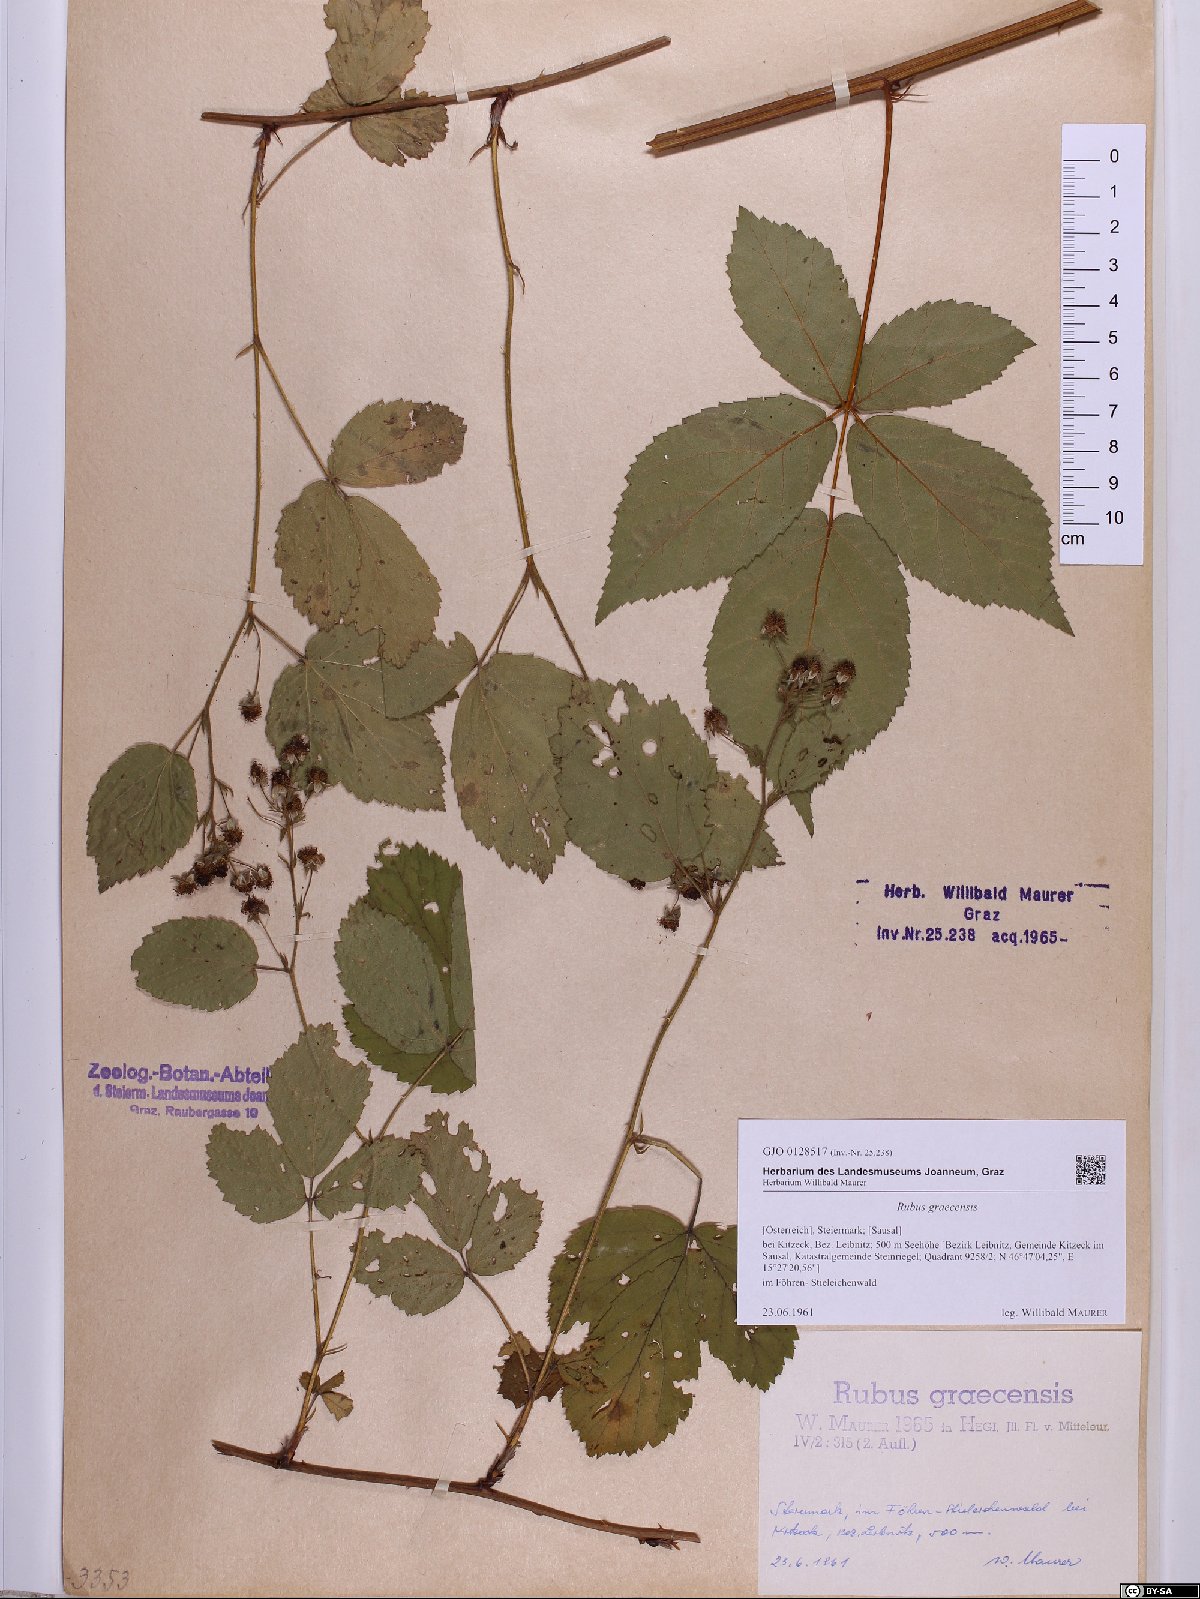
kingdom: Plantae
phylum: Tracheophyta
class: Magnoliopsida
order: Rosales
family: Rosaceae
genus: Rubus
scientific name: Rubus graecensis
